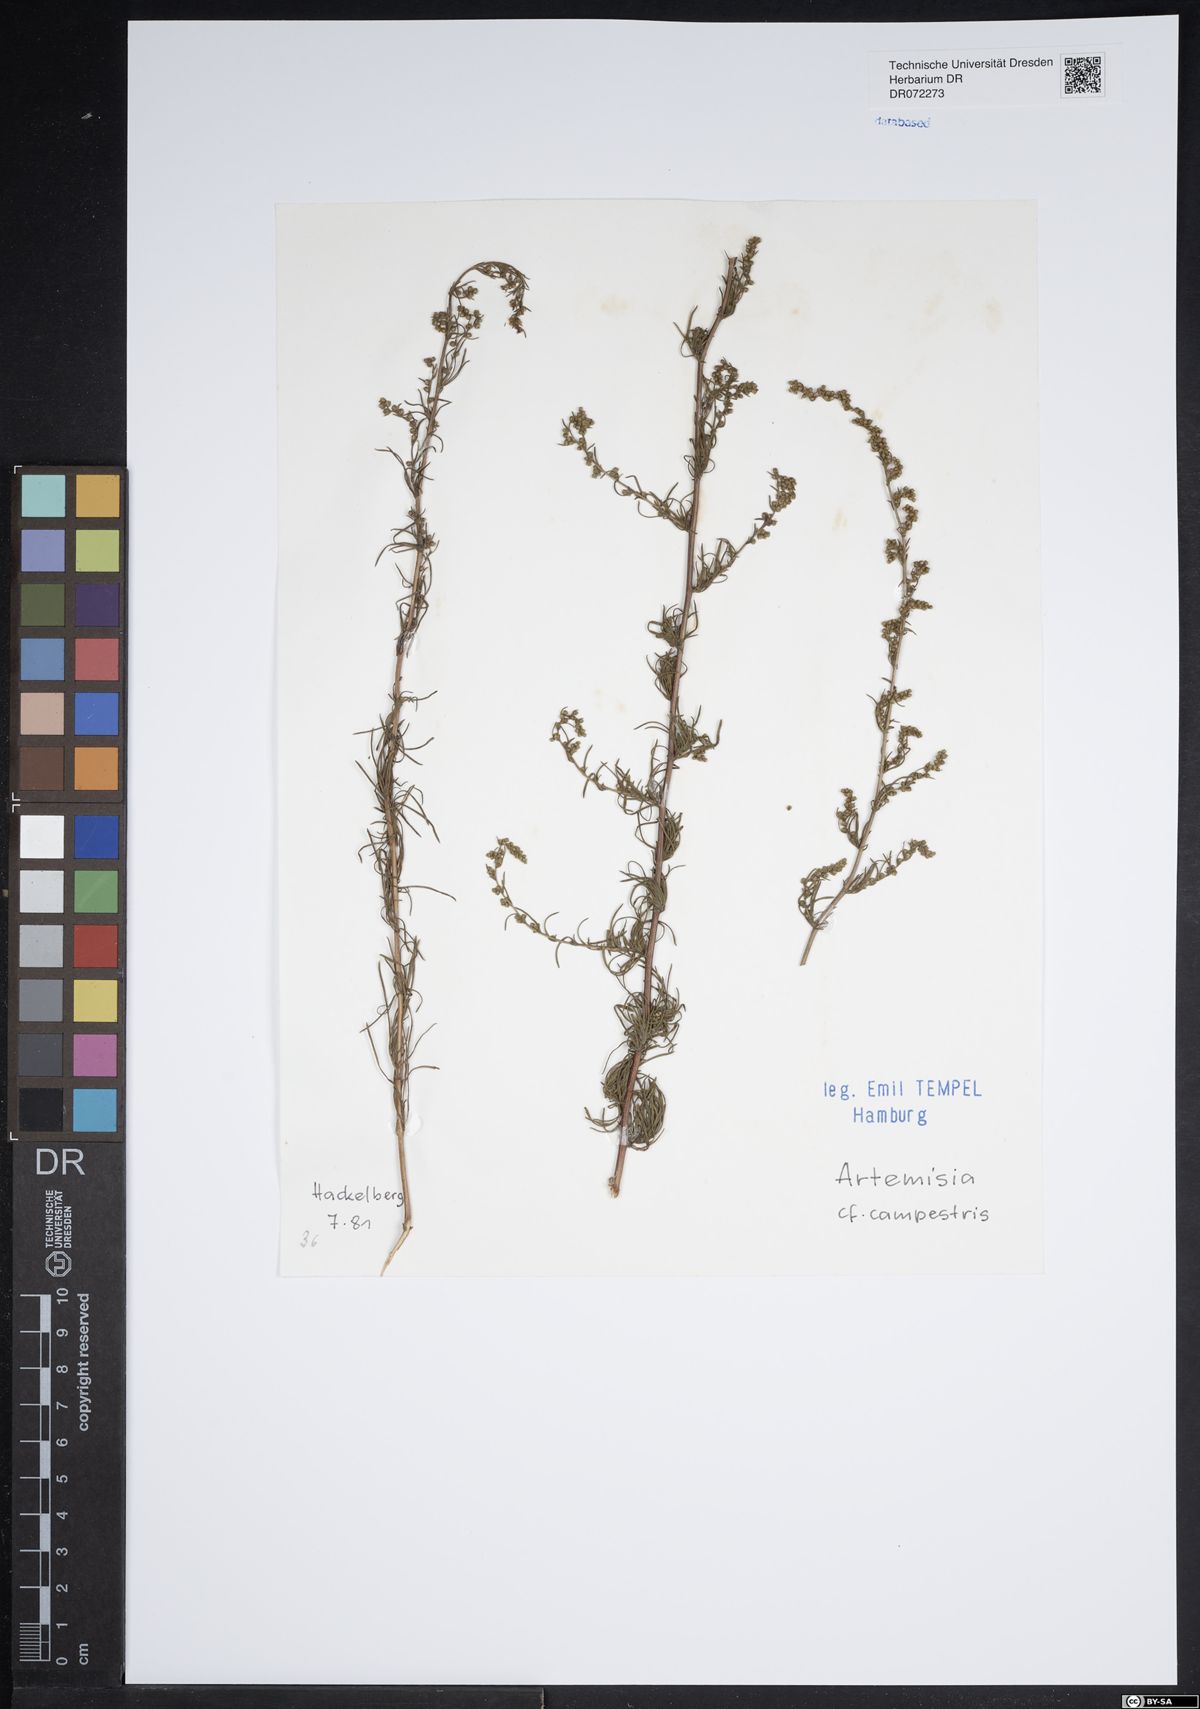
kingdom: Plantae
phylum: Tracheophyta
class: Magnoliopsida
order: Asterales
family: Asteraceae
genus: Artemisia
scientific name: Artemisia campestris
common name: Field wormwood
